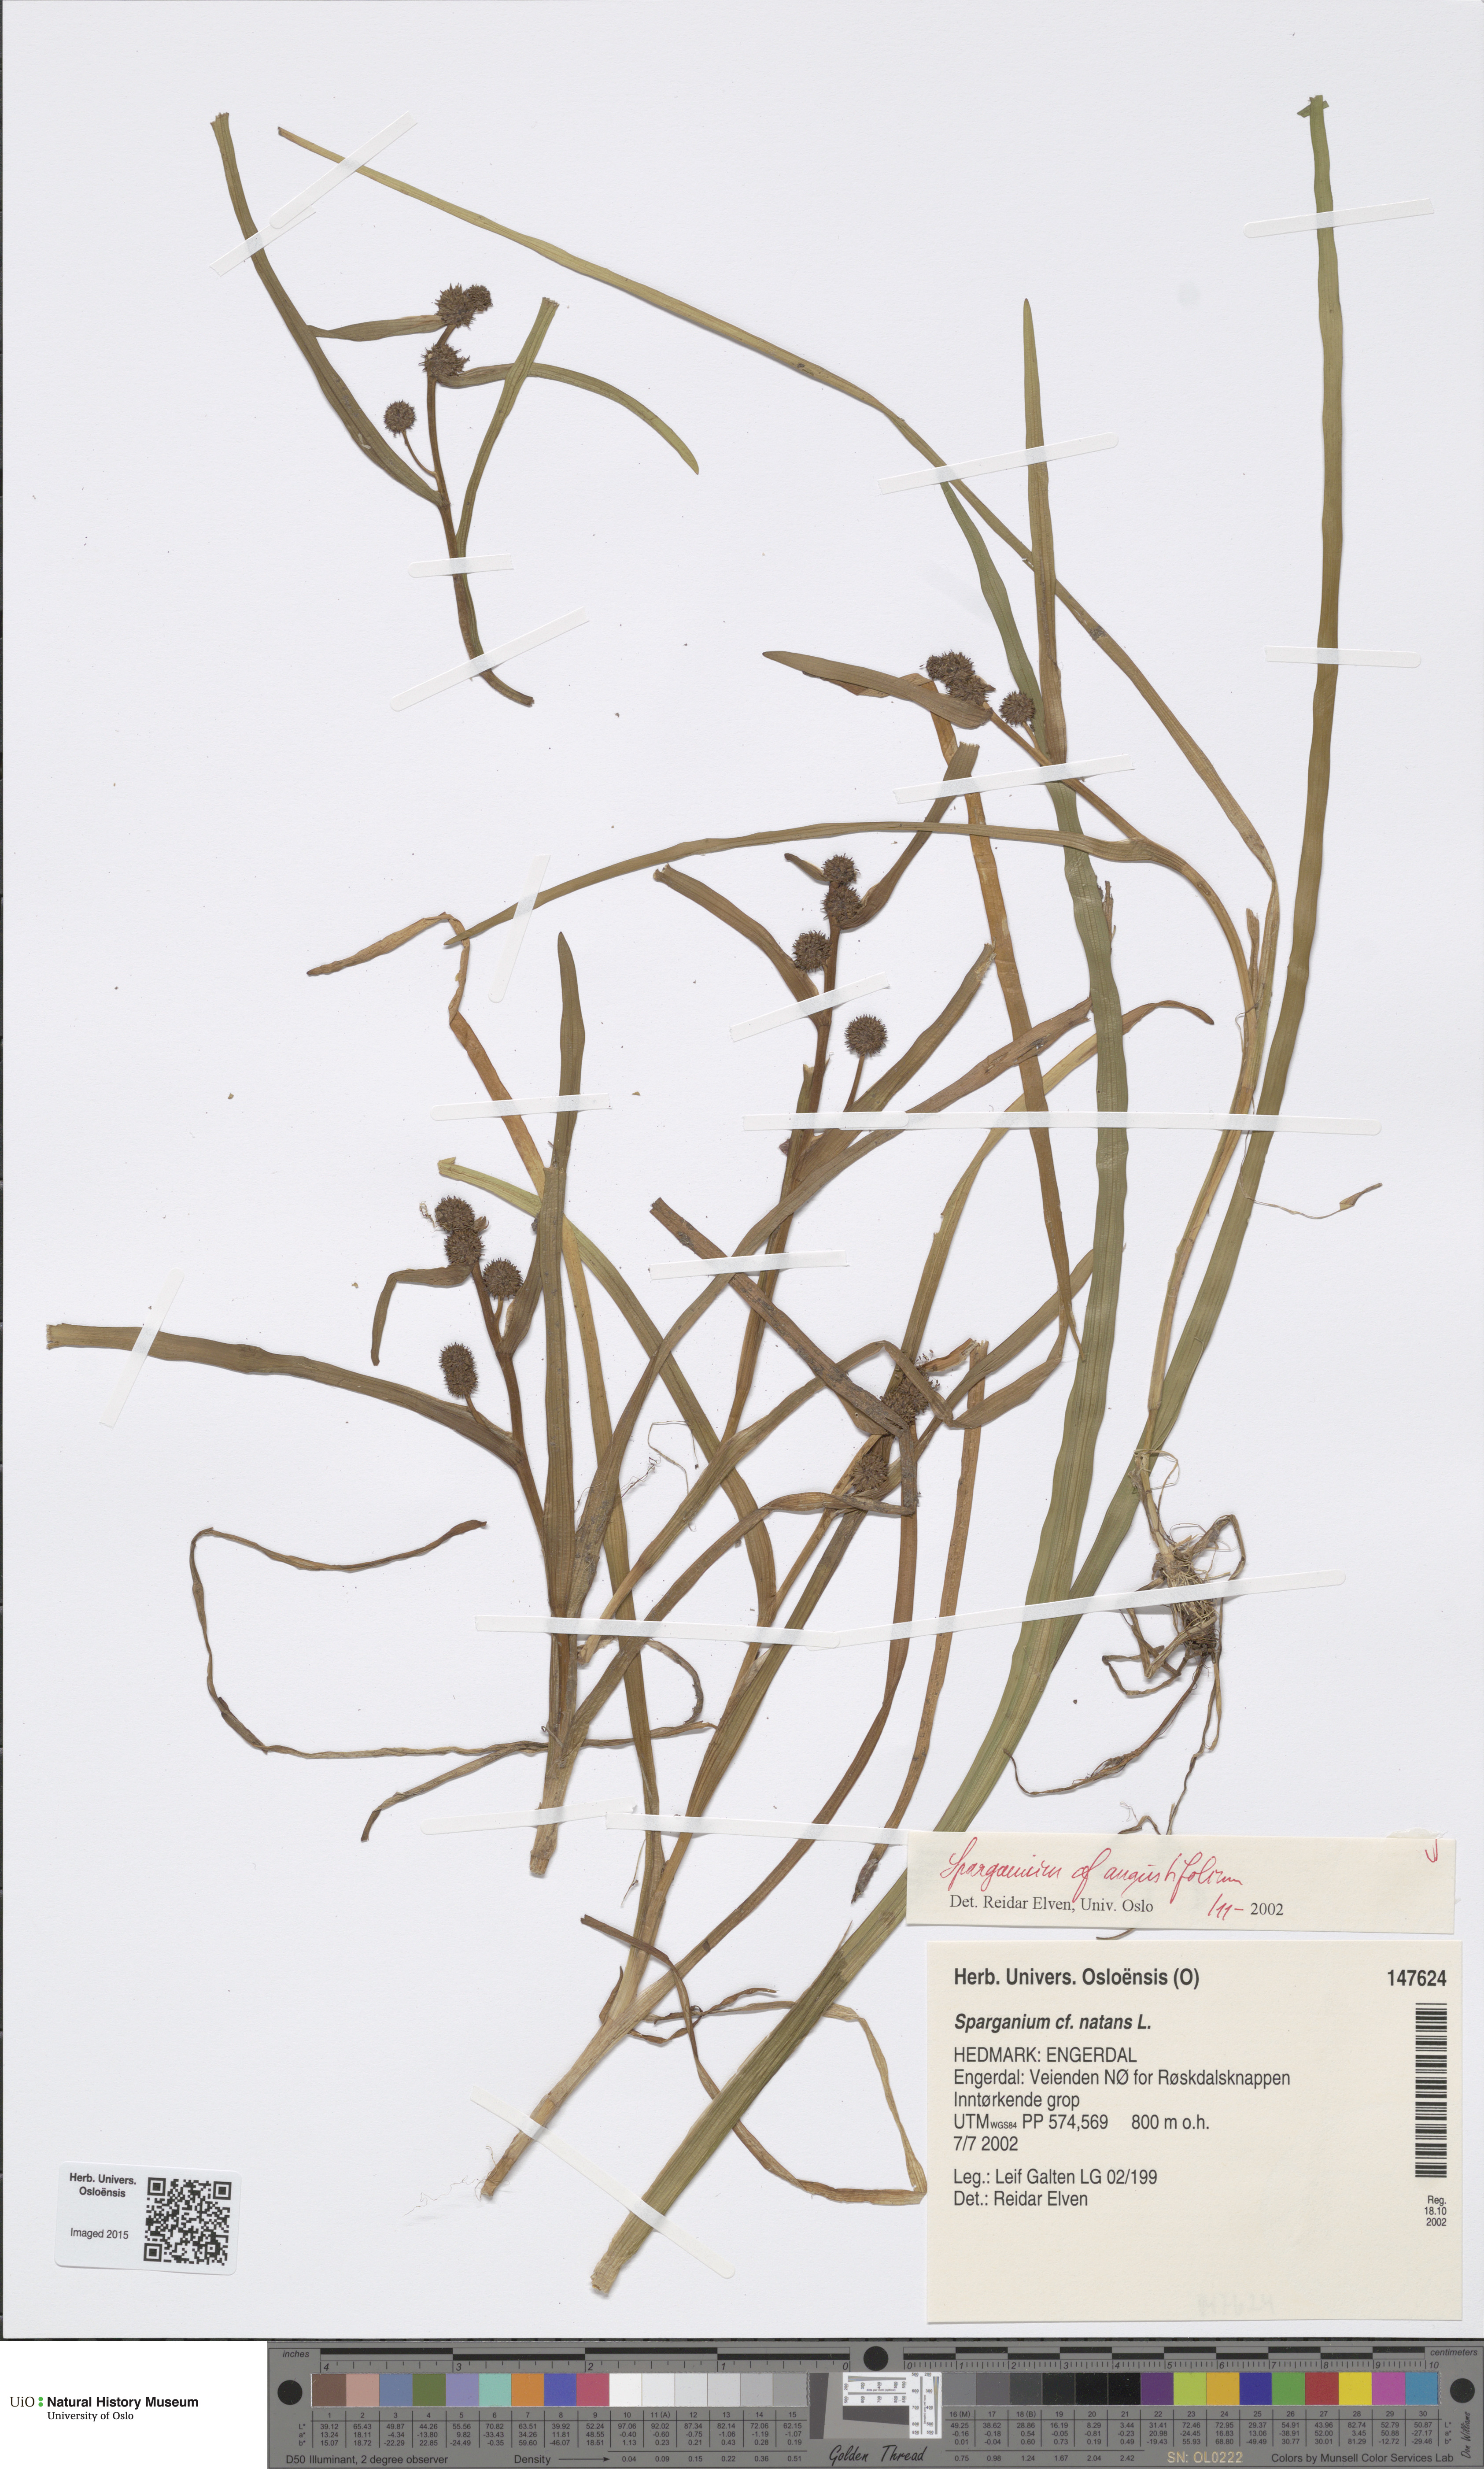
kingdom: Plantae
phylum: Tracheophyta
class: Liliopsida
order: Poales
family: Typhaceae
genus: Sparganium
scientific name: Sparganium angustifolium
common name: Floating bur-reed
